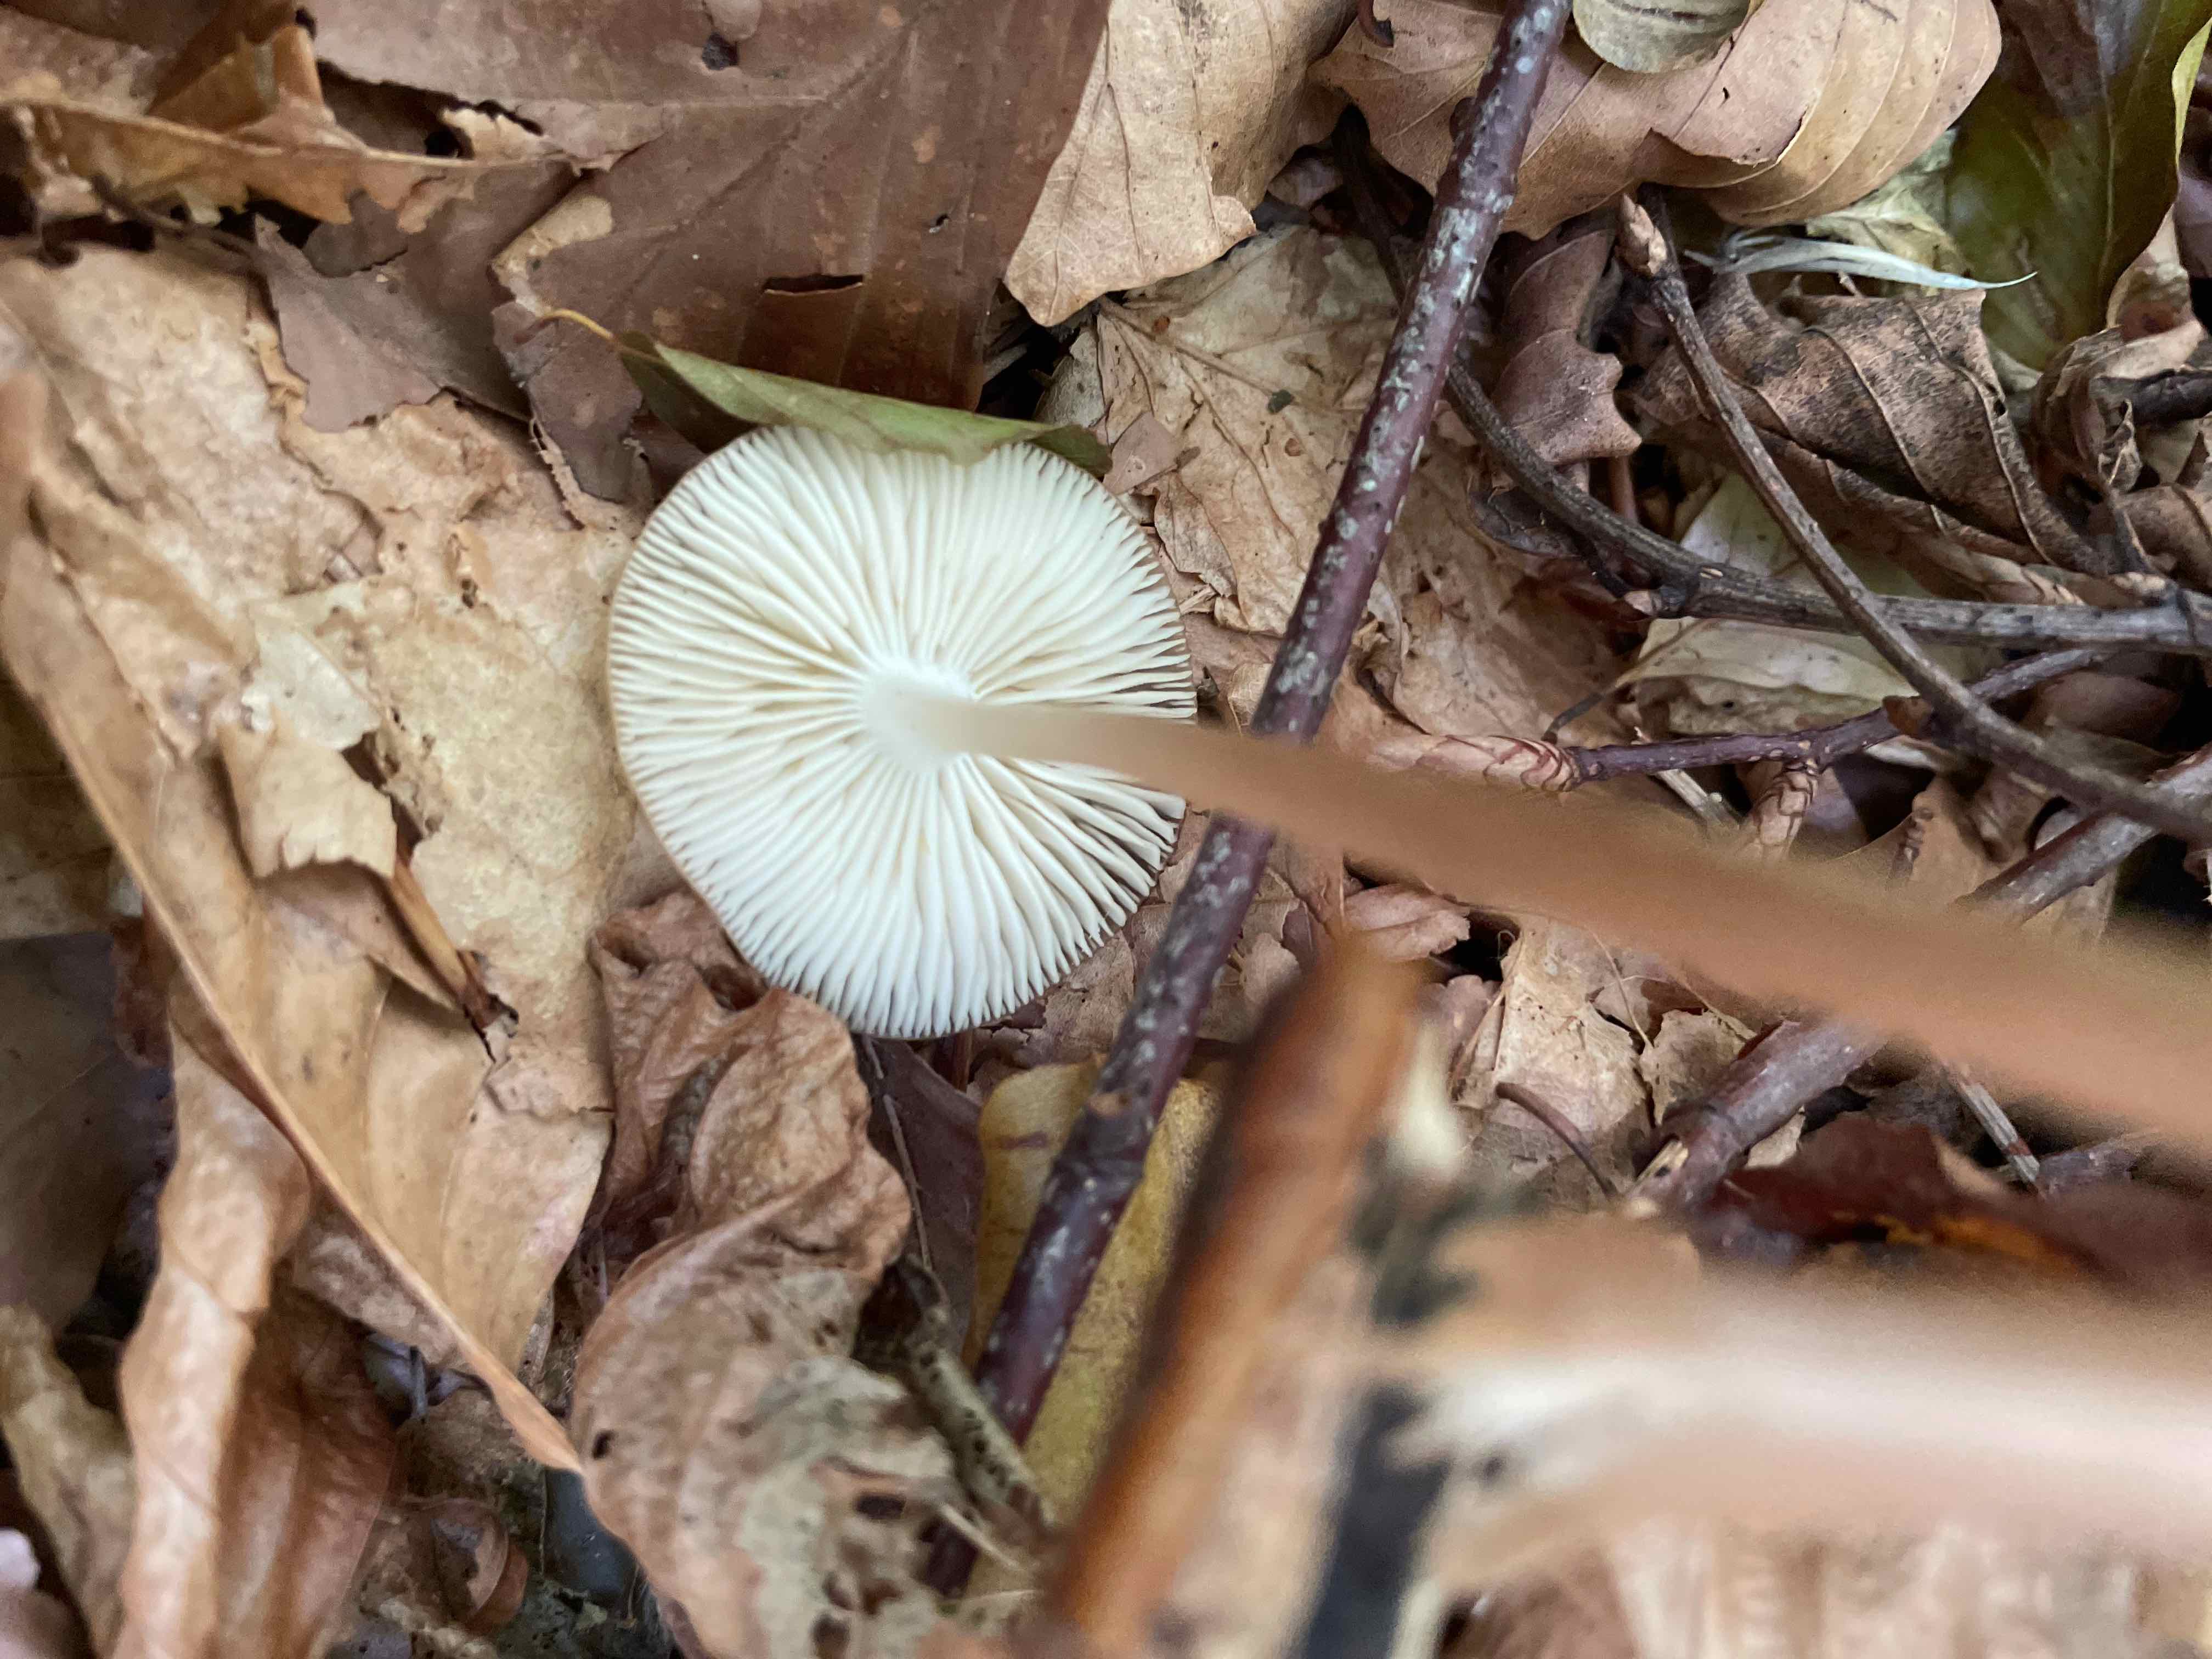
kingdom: Fungi
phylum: Basidiomycota
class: Agaricomycetes
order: Agaricales
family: Physalacriaceae
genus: Hymenopellis
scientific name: Hymenopellis radicata
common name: almindelig pælerodshat
